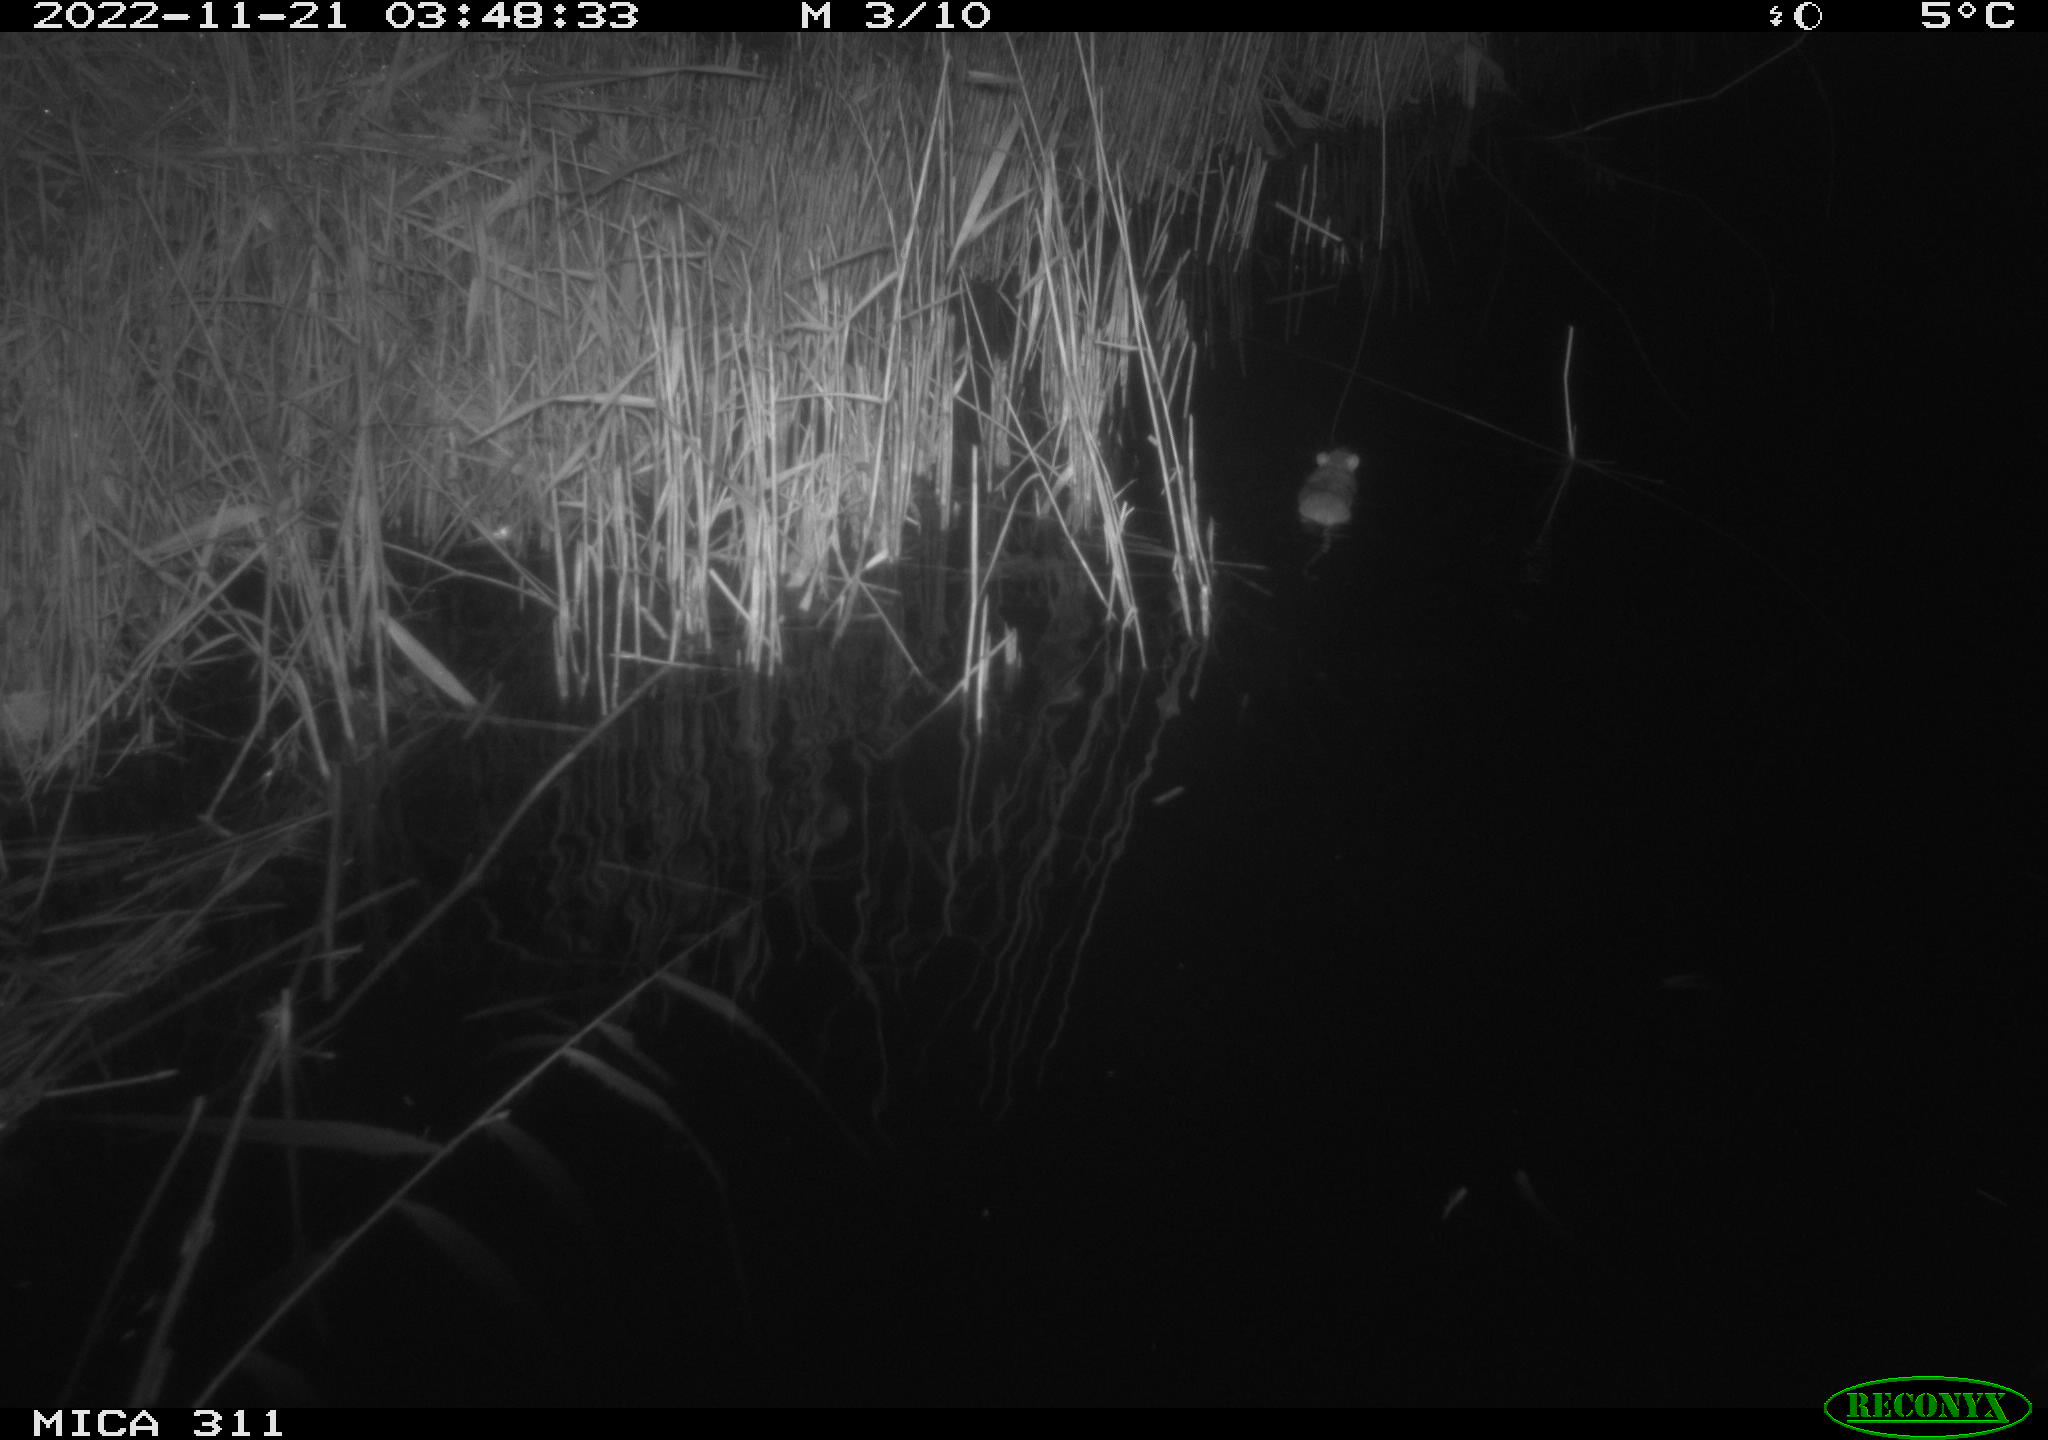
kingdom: Animalia
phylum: Chordata
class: Mammalia
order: Rodentia
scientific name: Rodentia
